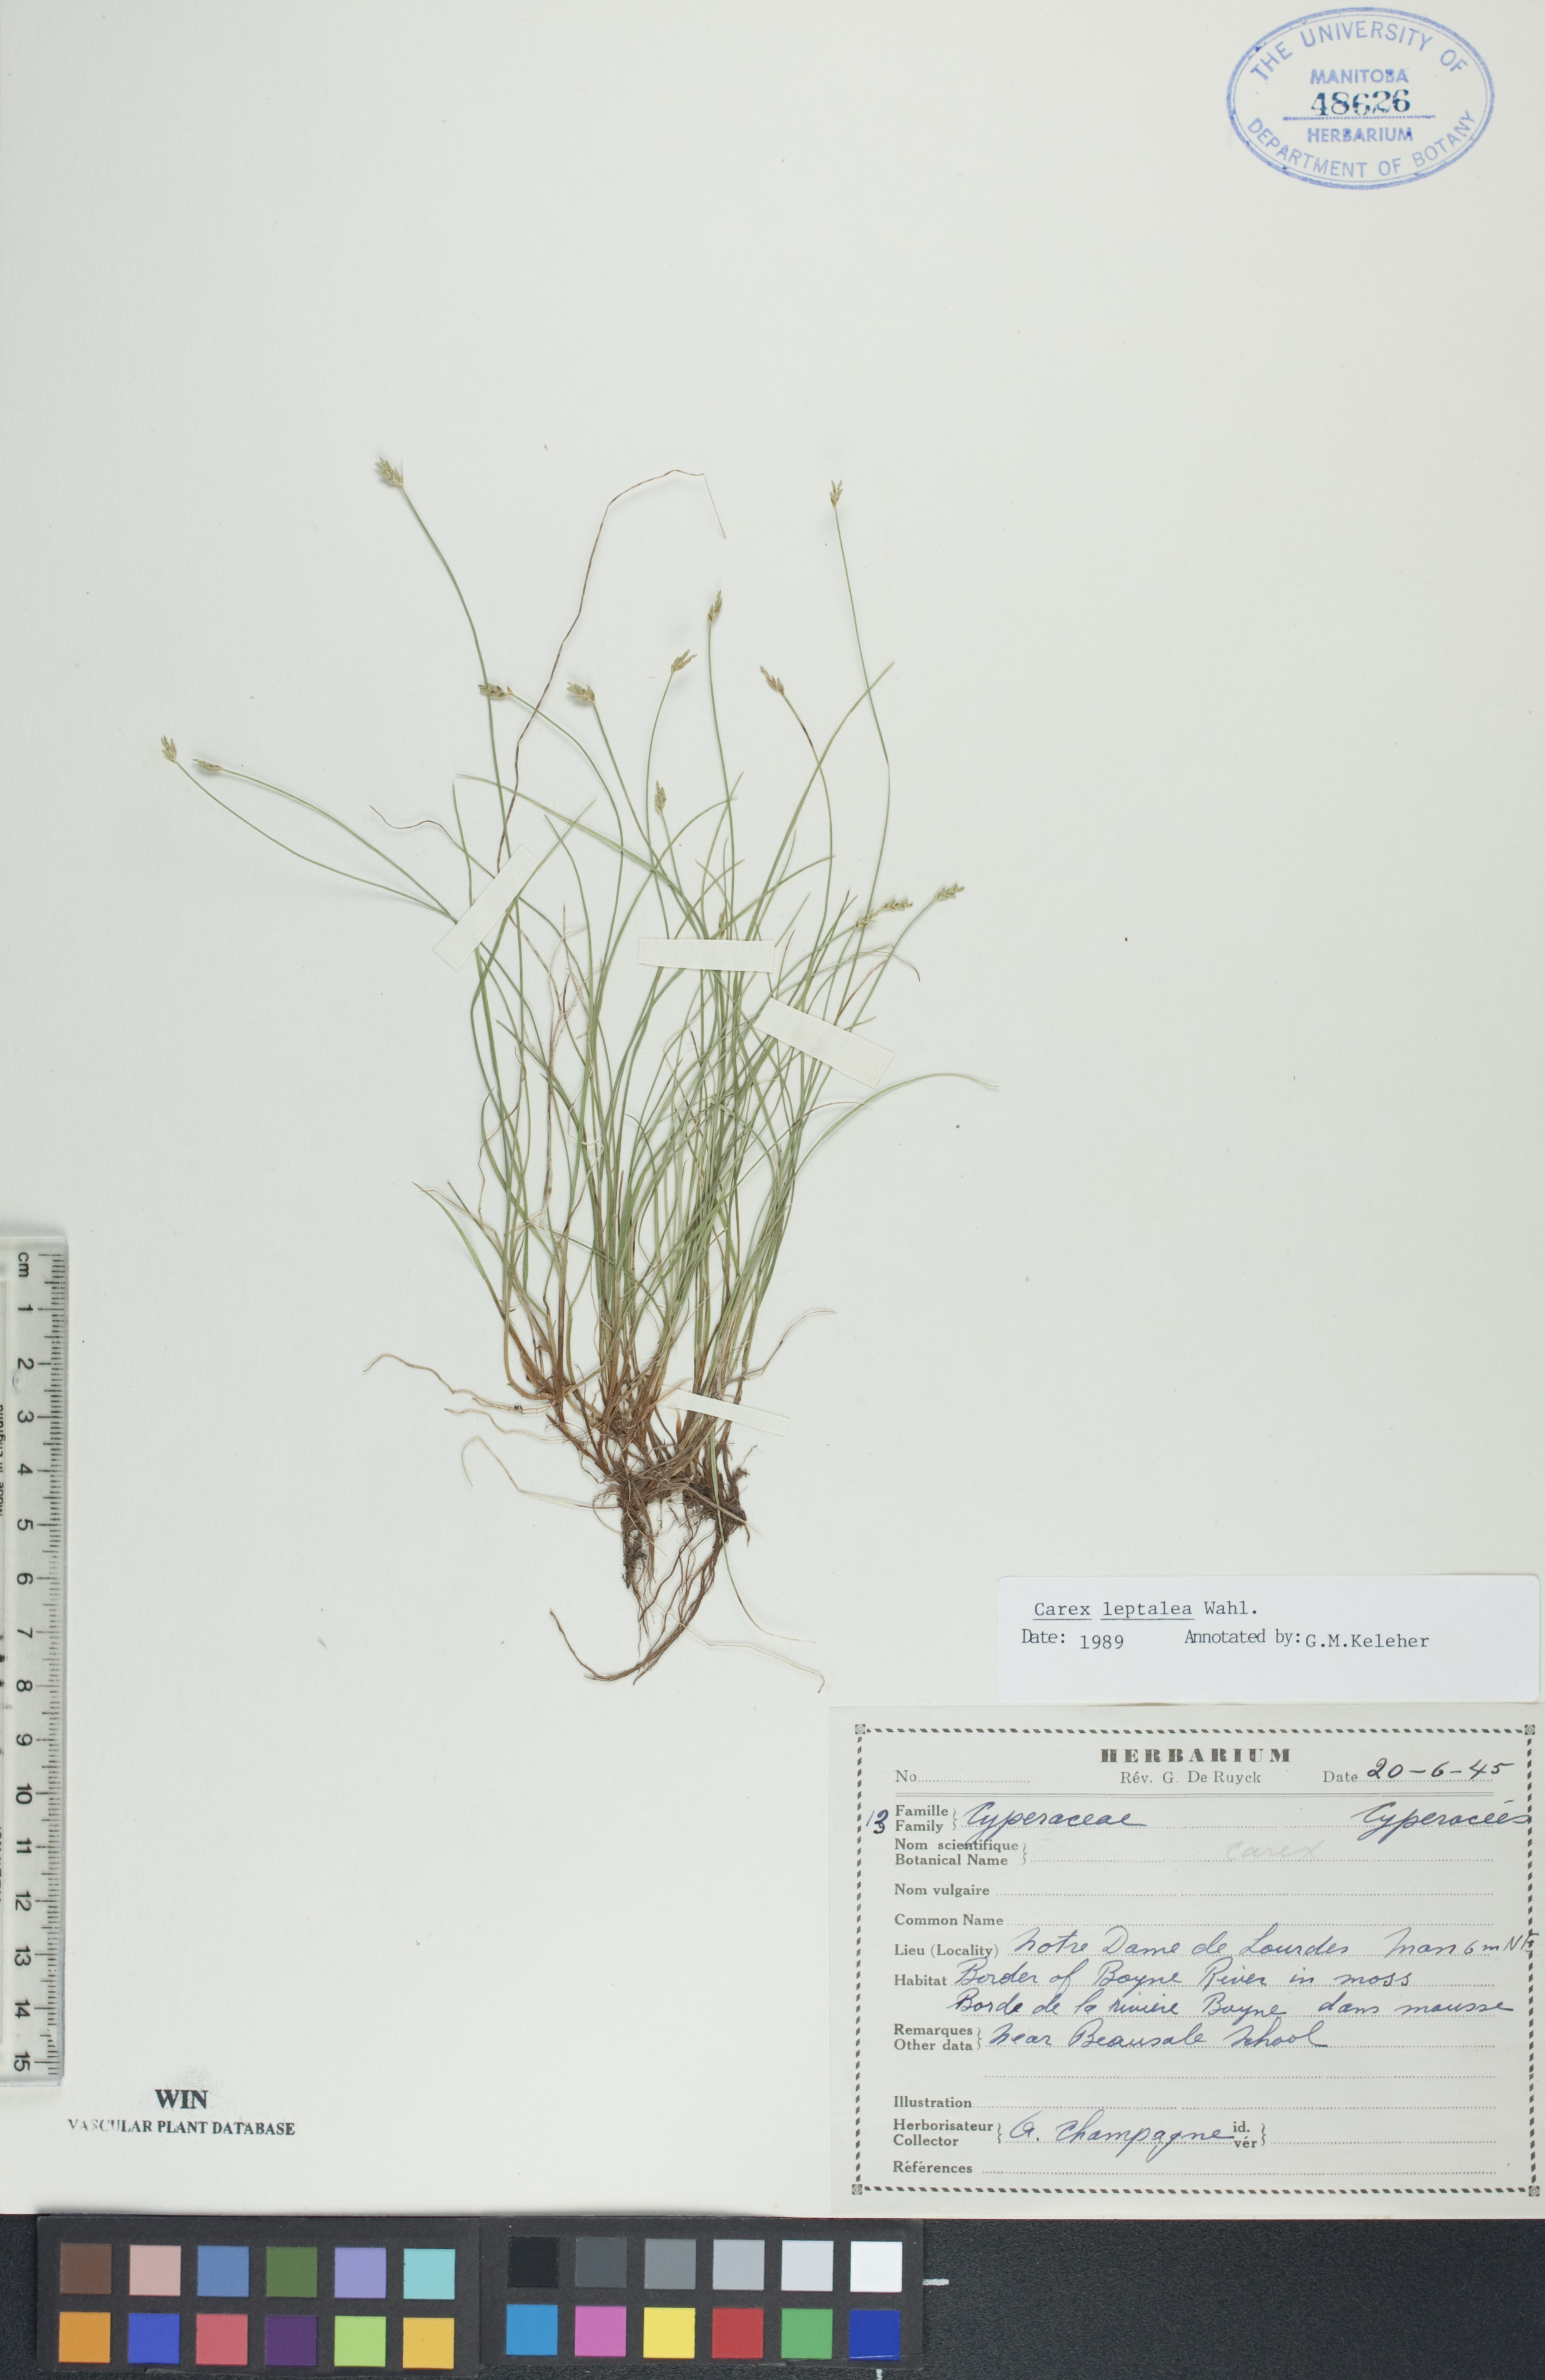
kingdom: Plantae
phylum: Tracheophyta
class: Liliopsida
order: Poales
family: Cyperaceae
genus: Carex
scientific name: Carex leptalea
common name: Bristly-stalked sedge
